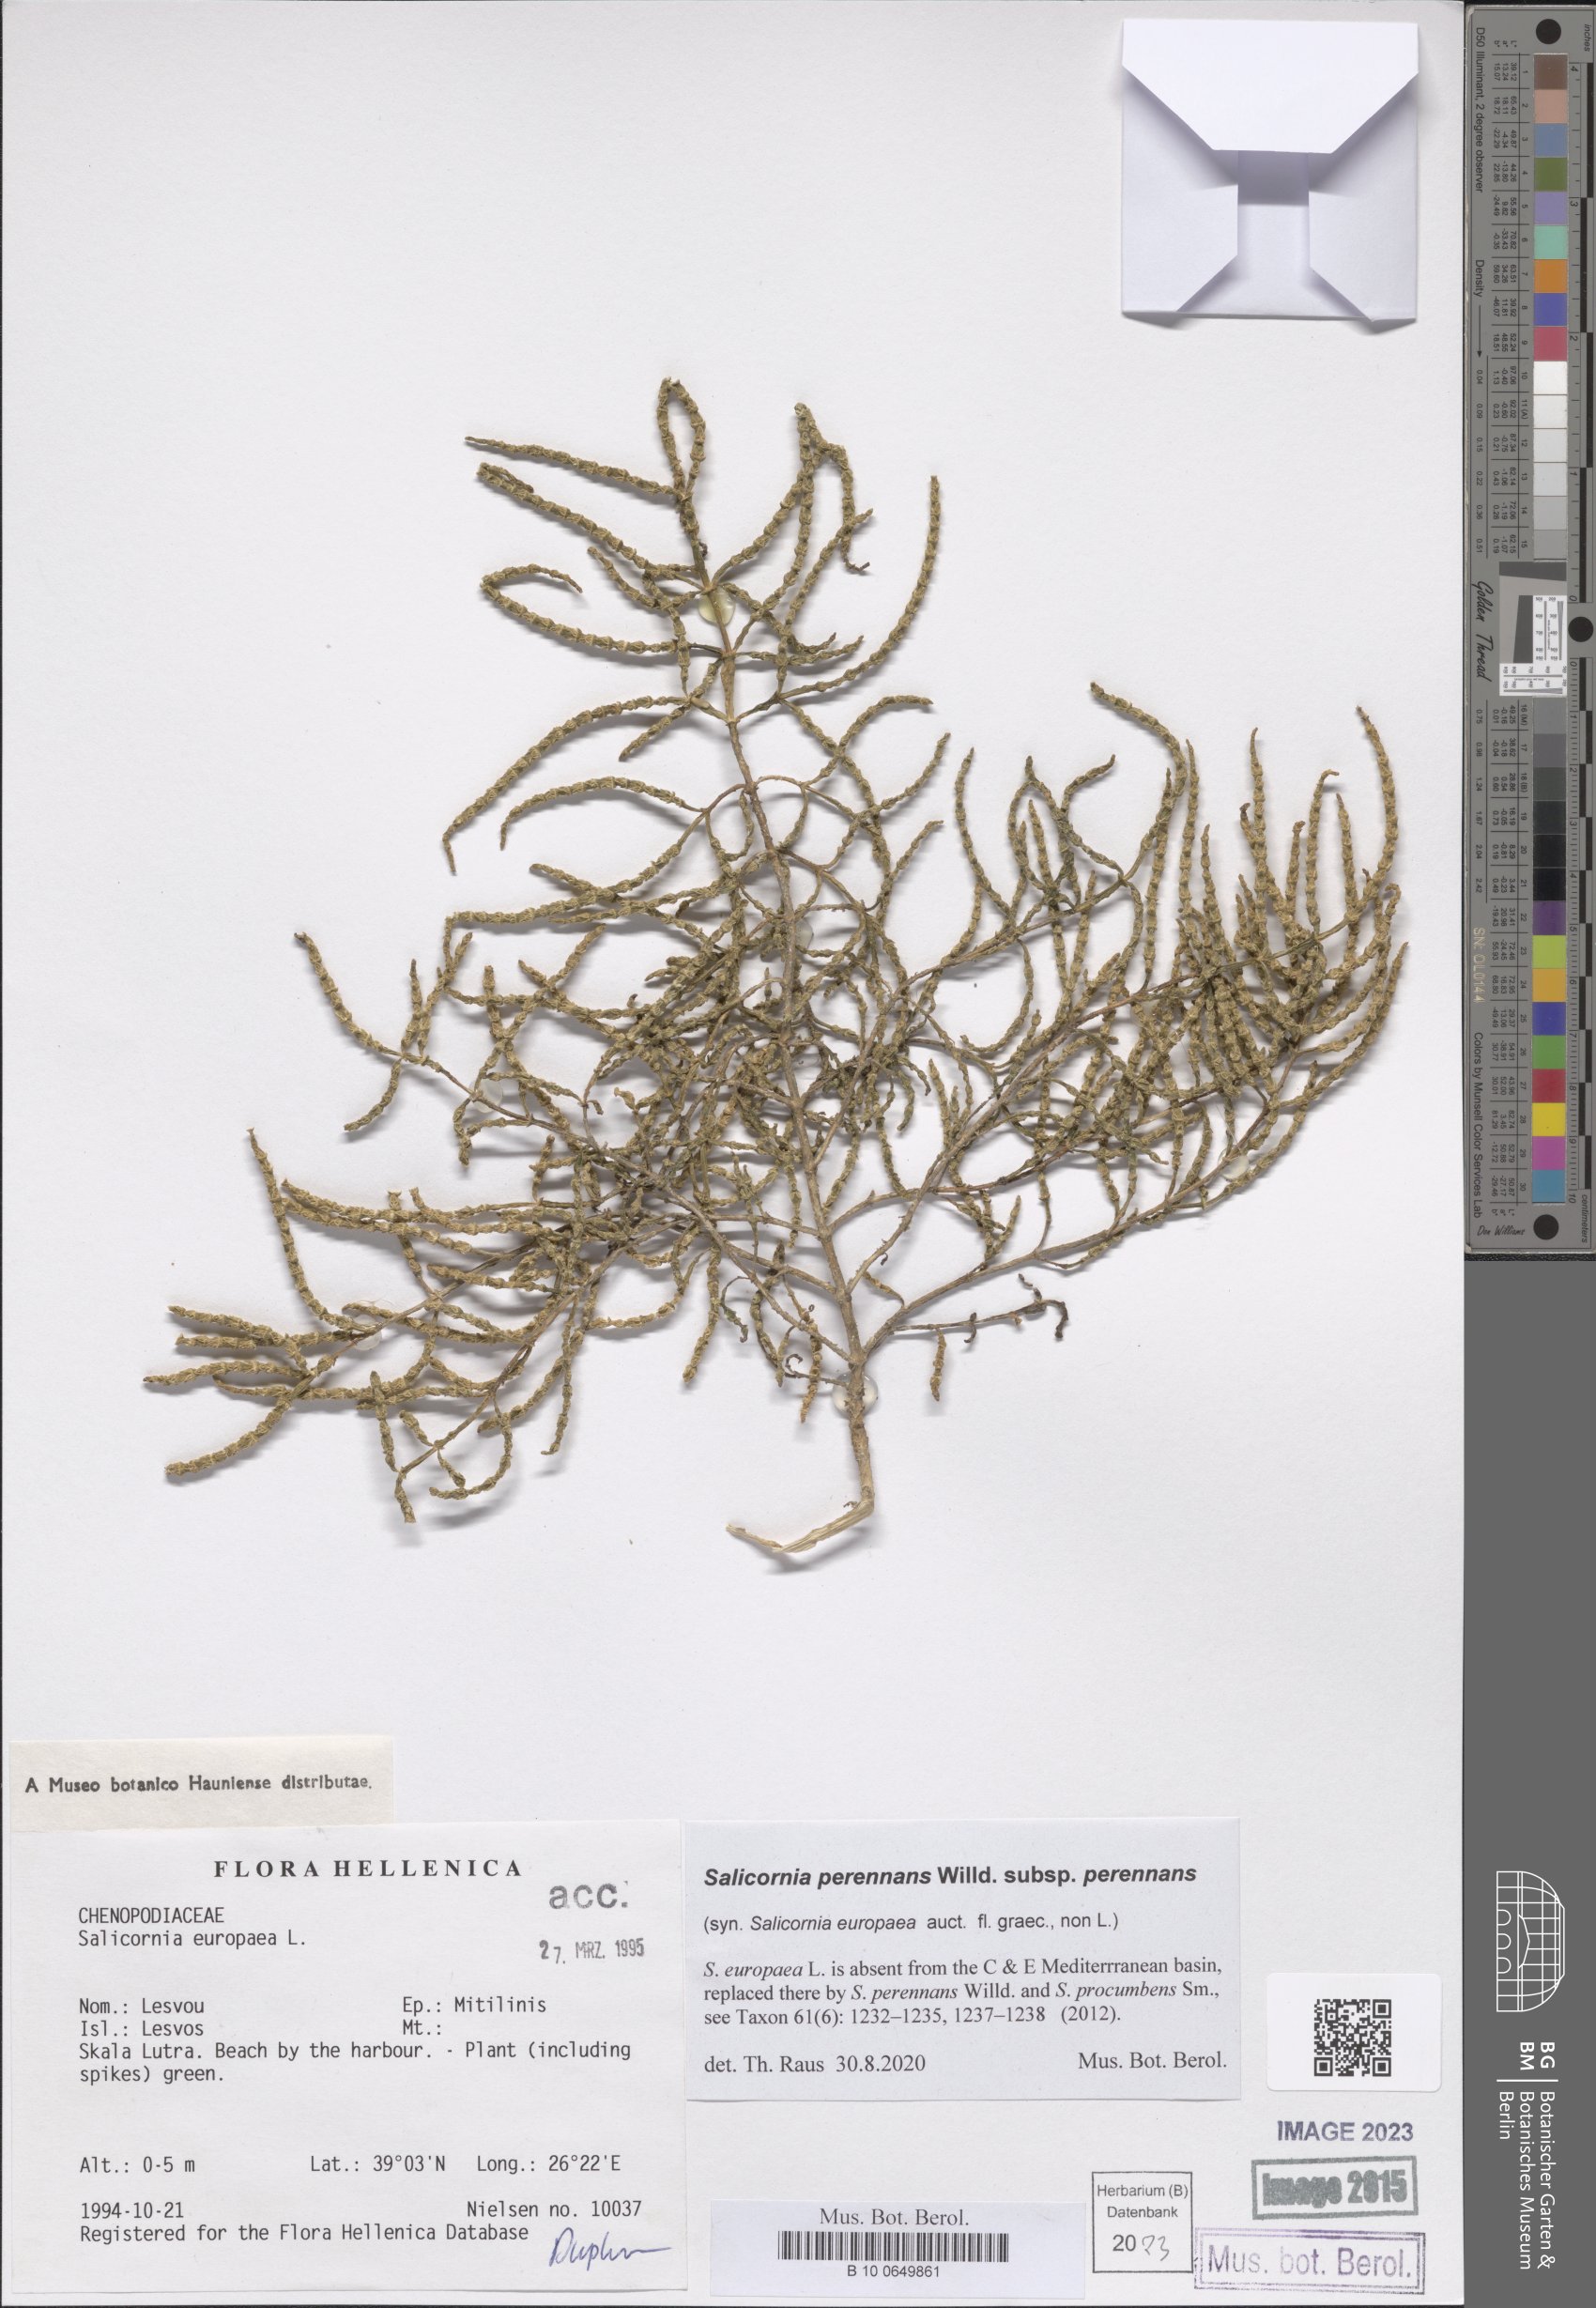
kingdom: Plantae
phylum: Tracheophyta
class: Magnoliopsida
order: Caryophyllales
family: Amaranthaceae
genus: Salicornia
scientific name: Salicornia perennans
